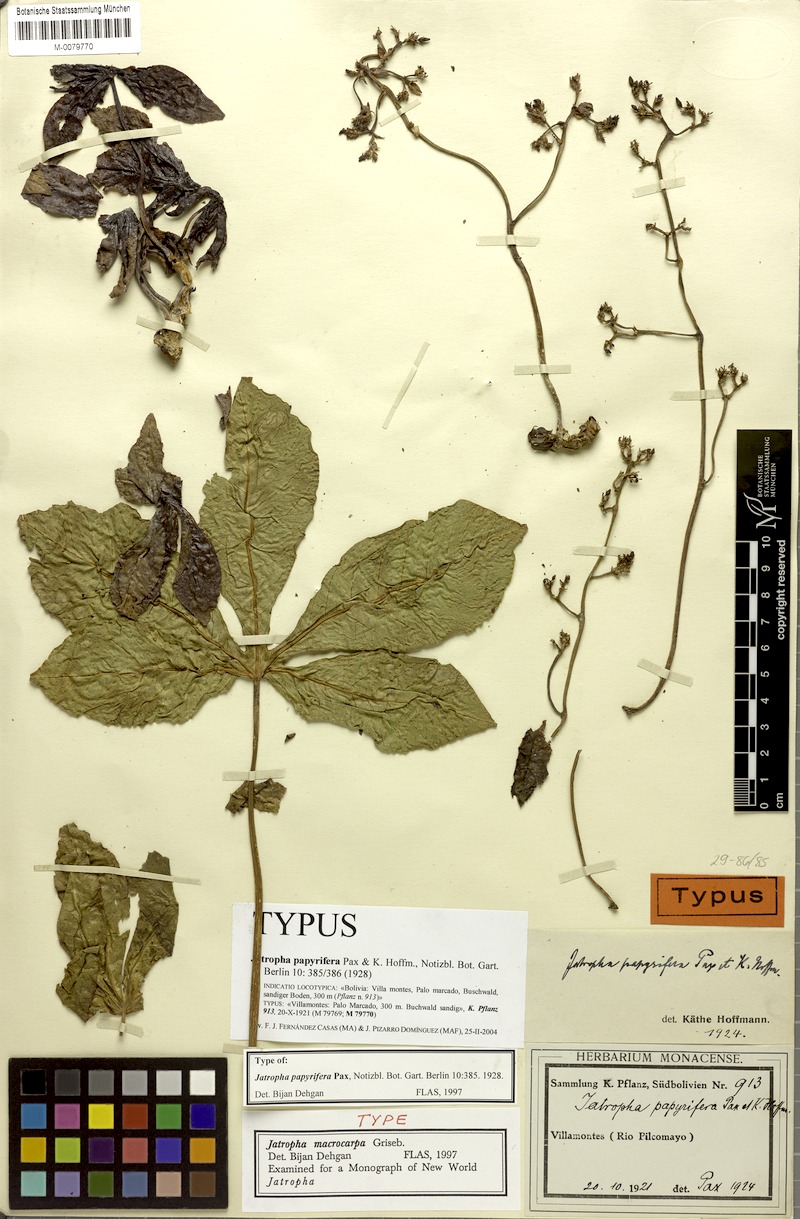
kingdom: Plantae
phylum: Tracheophyta
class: Magnoliopsida
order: Malpighiales
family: Euphorbiaceae
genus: Jatropha
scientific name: Jatropha macrocarpa
